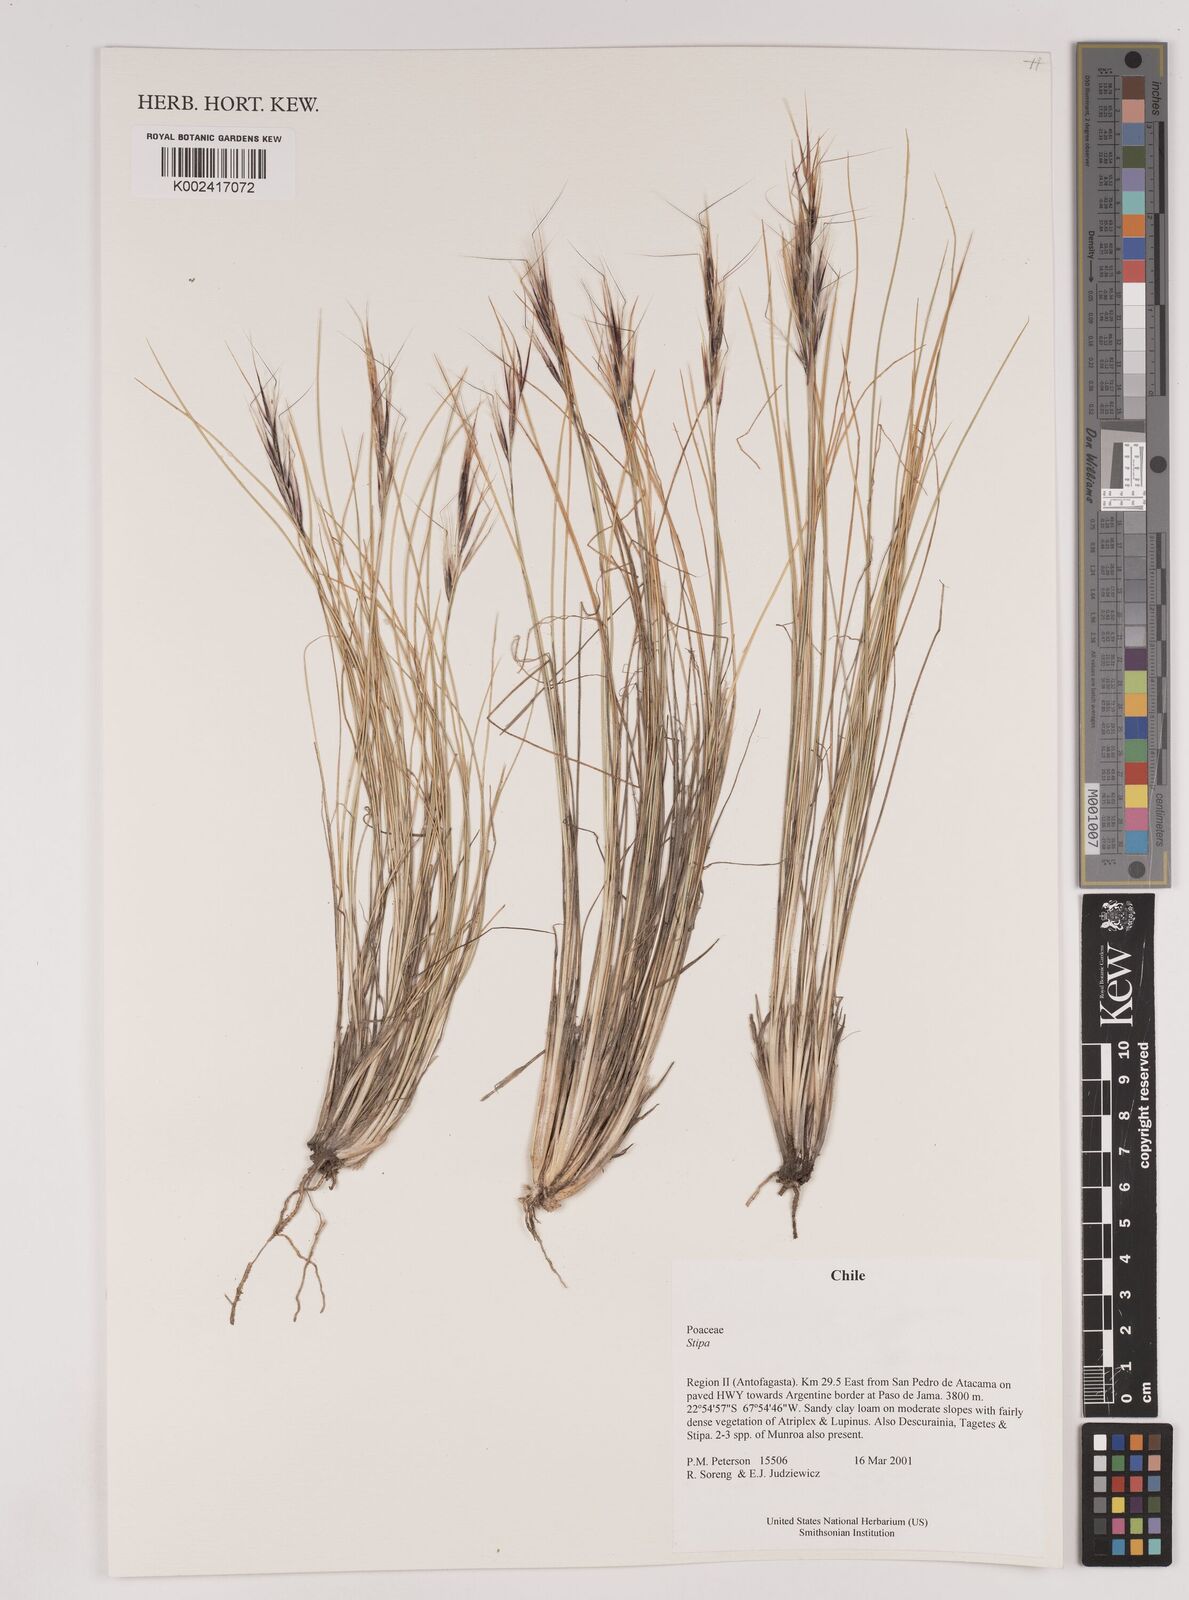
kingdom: Plantae
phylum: Tracheophyta
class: Liliopsida
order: Poales
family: Poaceae
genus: Pappostipa
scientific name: Pappostipa atacamensis
